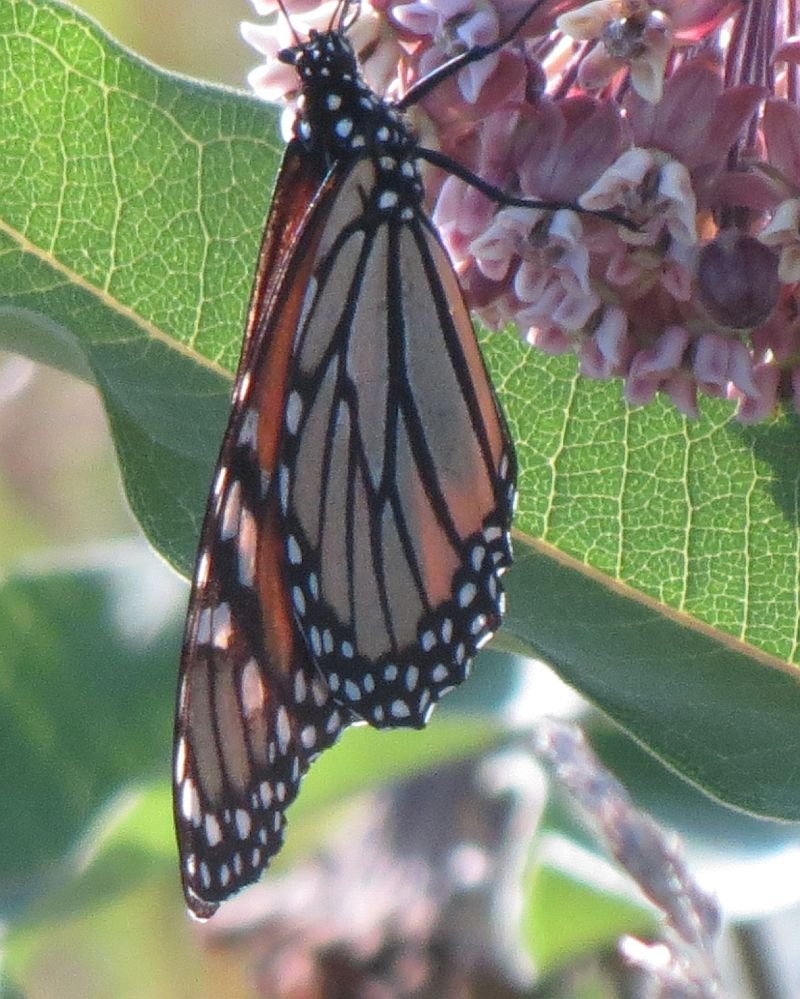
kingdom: Animalia
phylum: Arthropoda
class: Insecta
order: Lepidoptera
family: Nymphalidae
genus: Danaus
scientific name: Danaus plexippus
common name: Monarch
